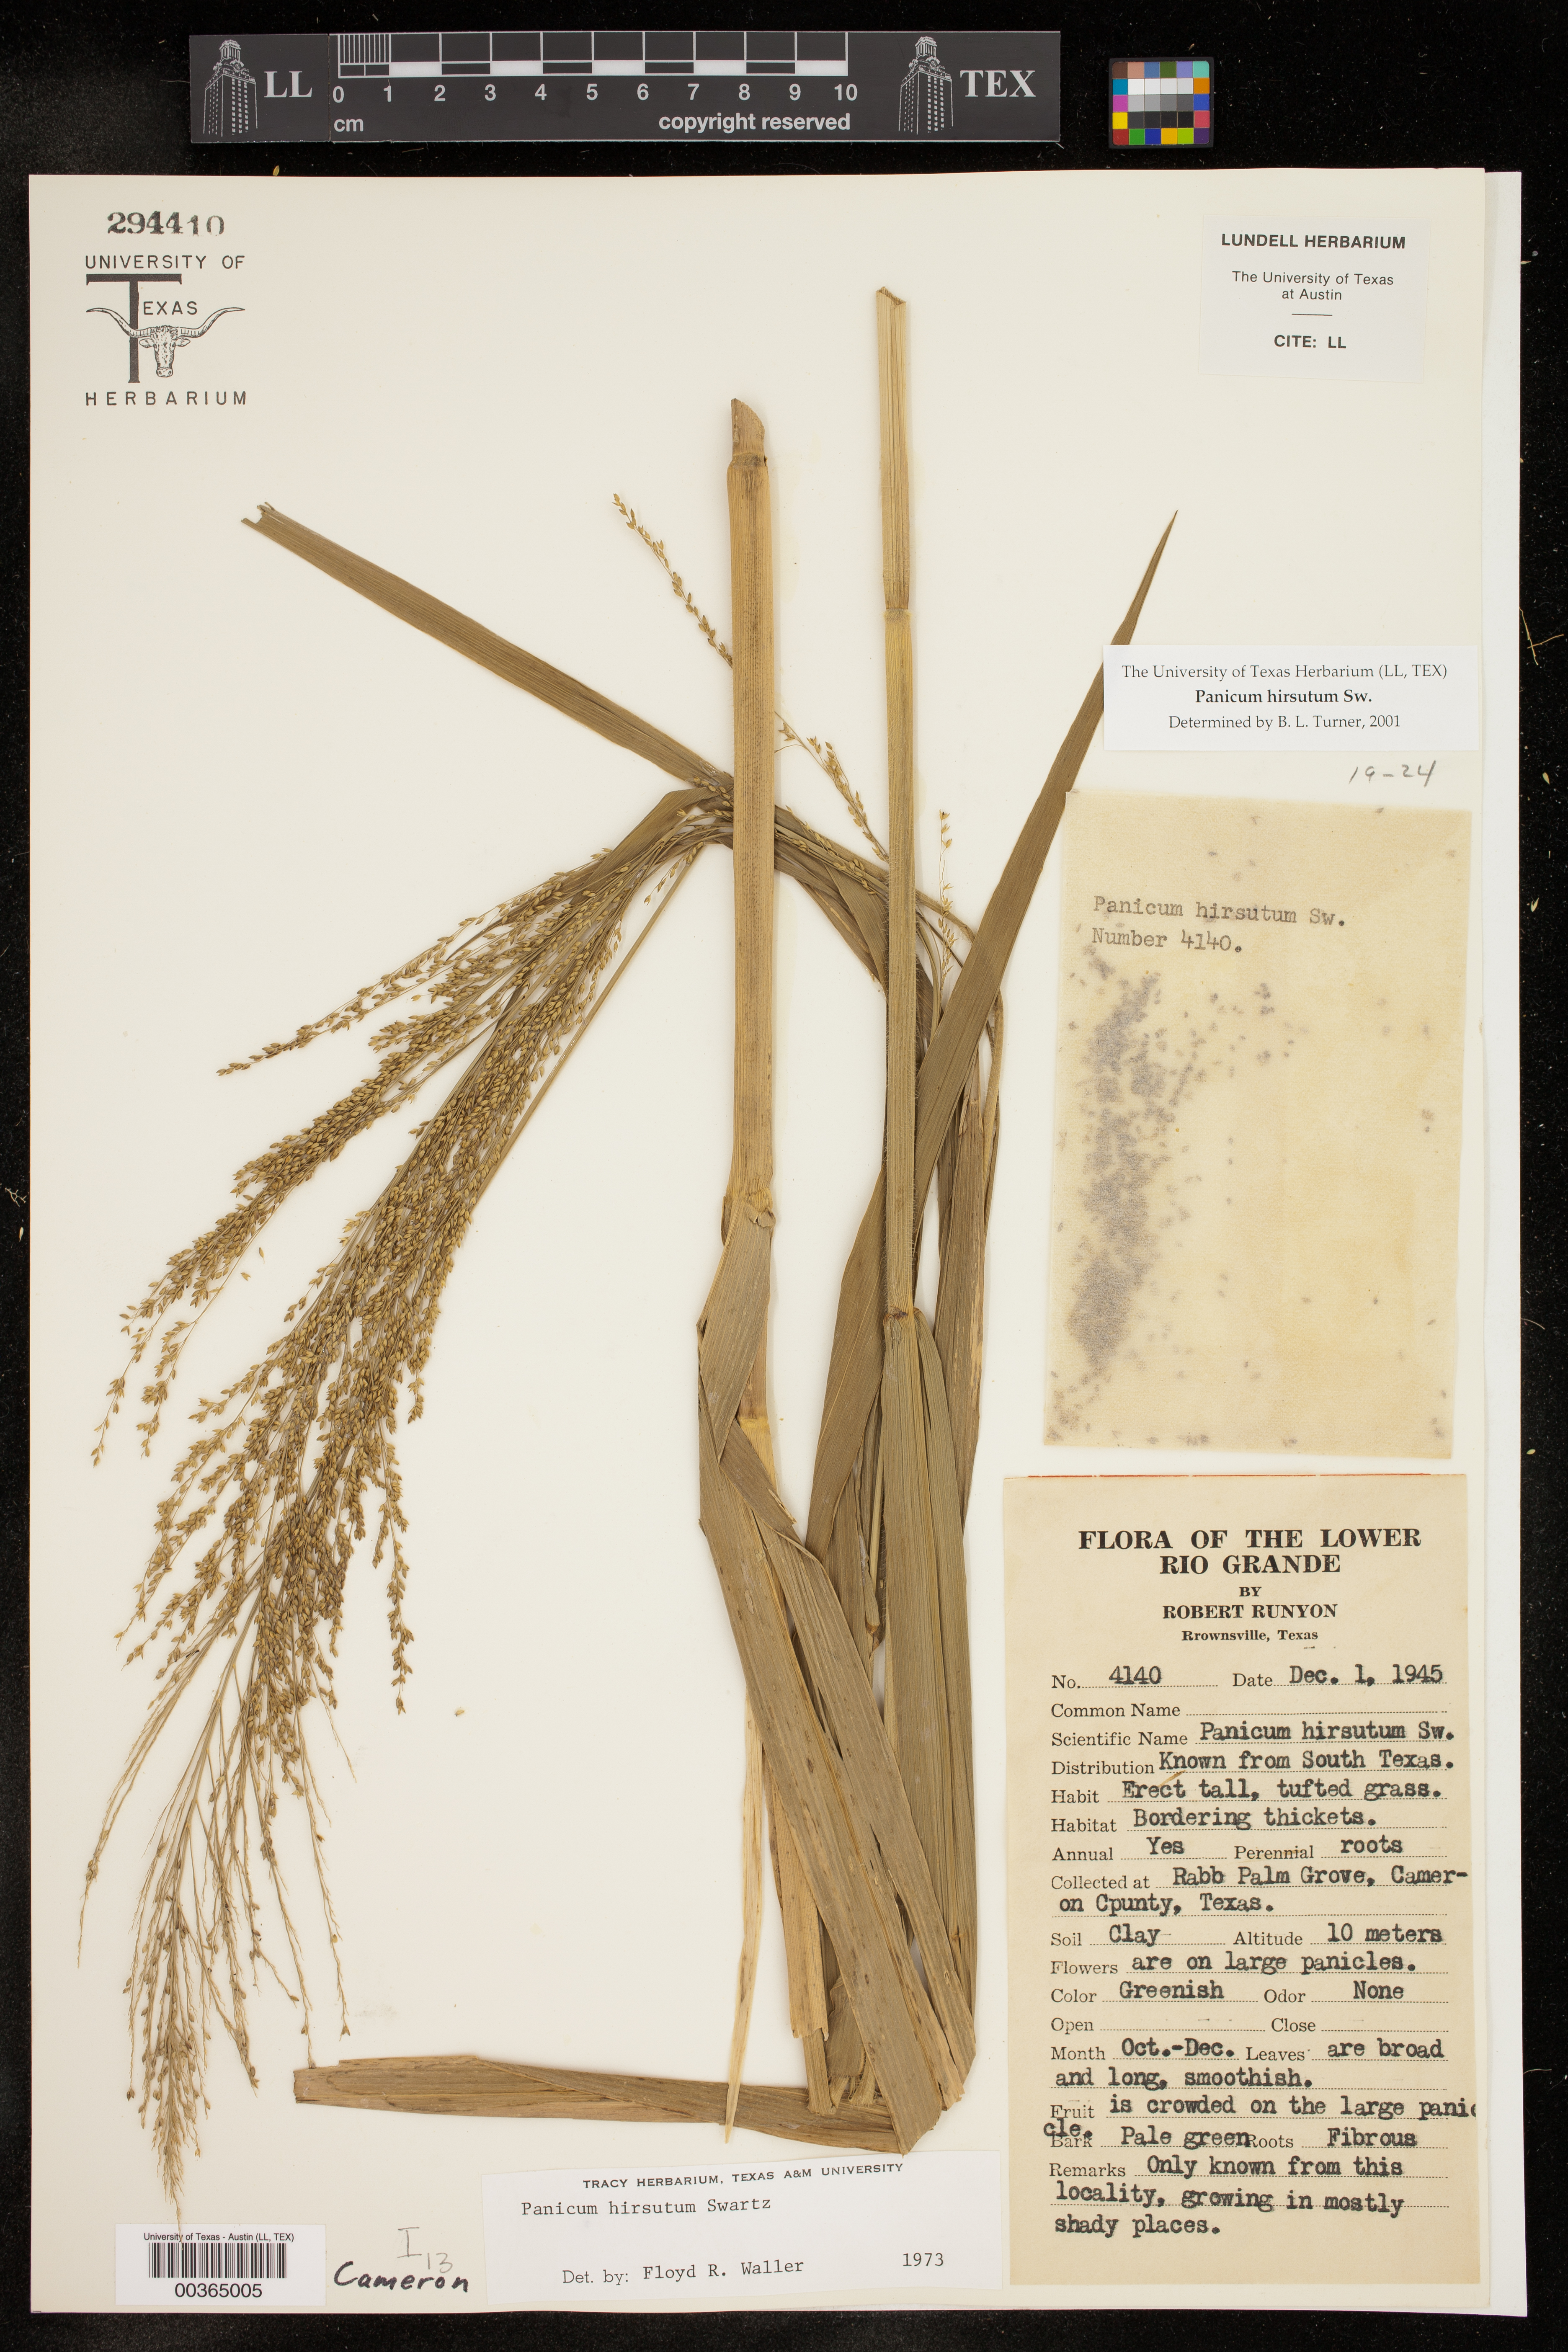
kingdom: Plantae
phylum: Tracheophyta
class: Liliopsida
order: Poales
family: Poaceae
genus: Panicum
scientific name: Panicum hirsutum
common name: Giant witchgrass
